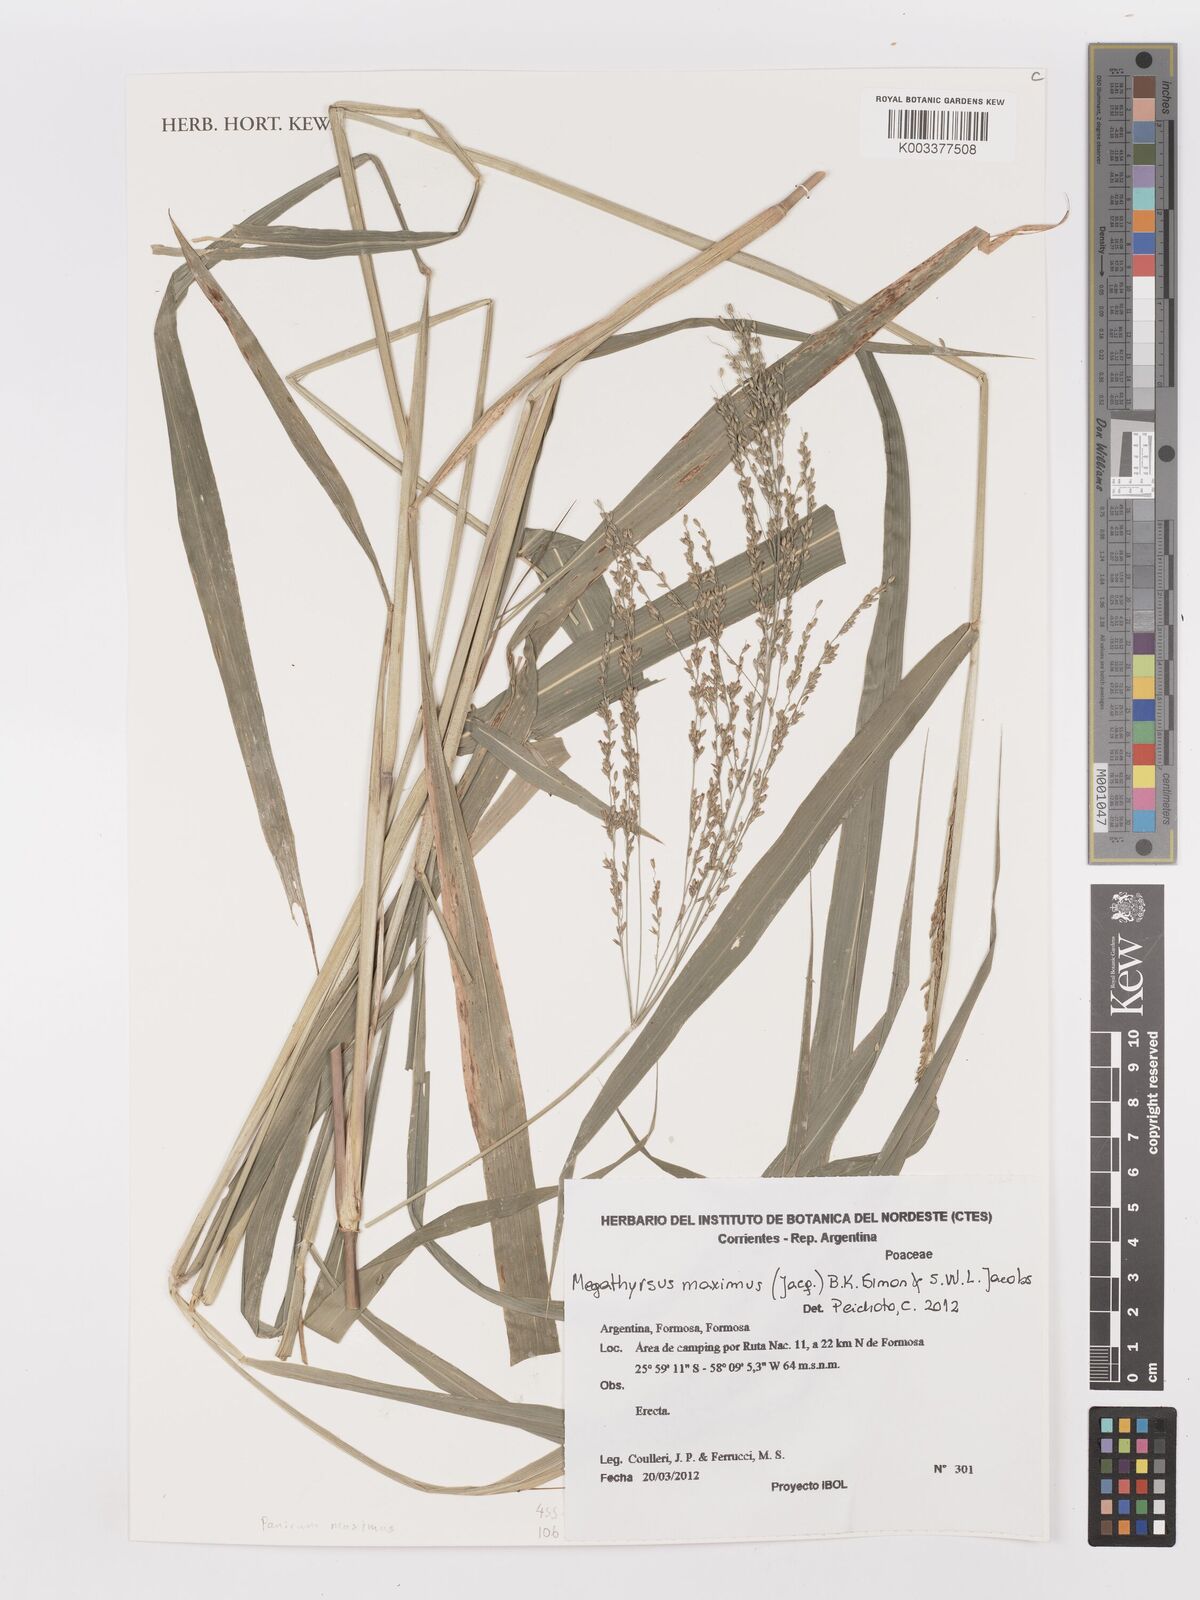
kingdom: Plantae
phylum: Tracheophyta
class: Liliopsida
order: Poales
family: Poaceae
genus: Megathyrsus
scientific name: Megathyrsus maximus
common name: Guineagrass
